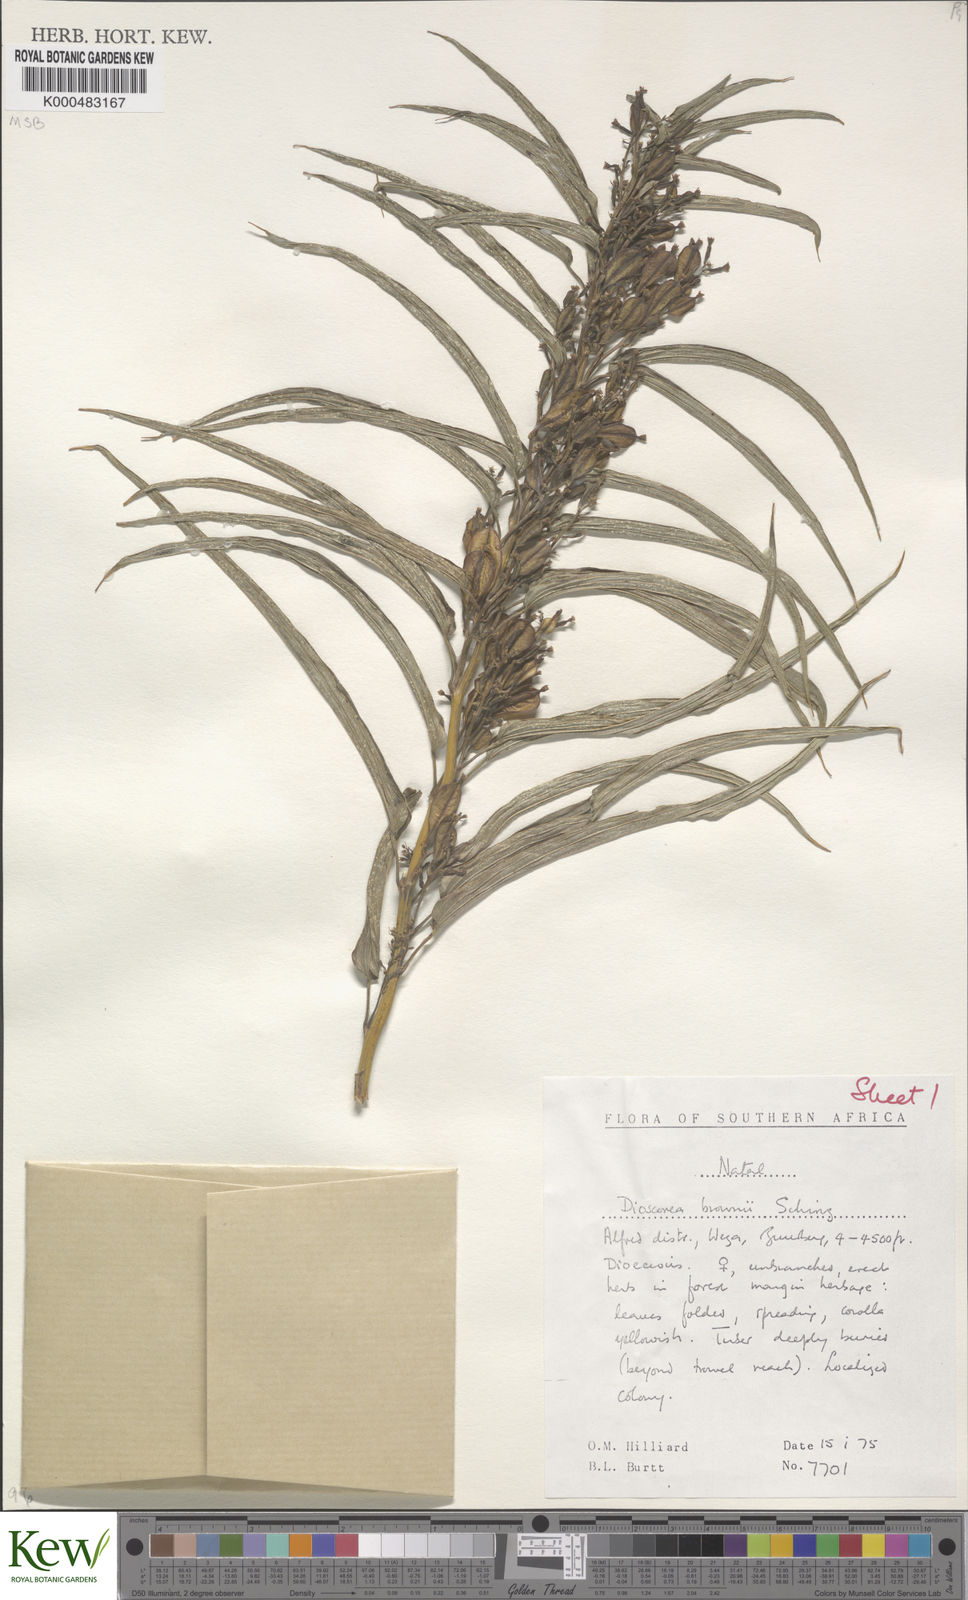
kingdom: Plantae
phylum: Tracheophyta
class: Liliopsida
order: Dioscoreales
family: Dioscoreaceae
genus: Dioscorea
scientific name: Dioscorea brownii
